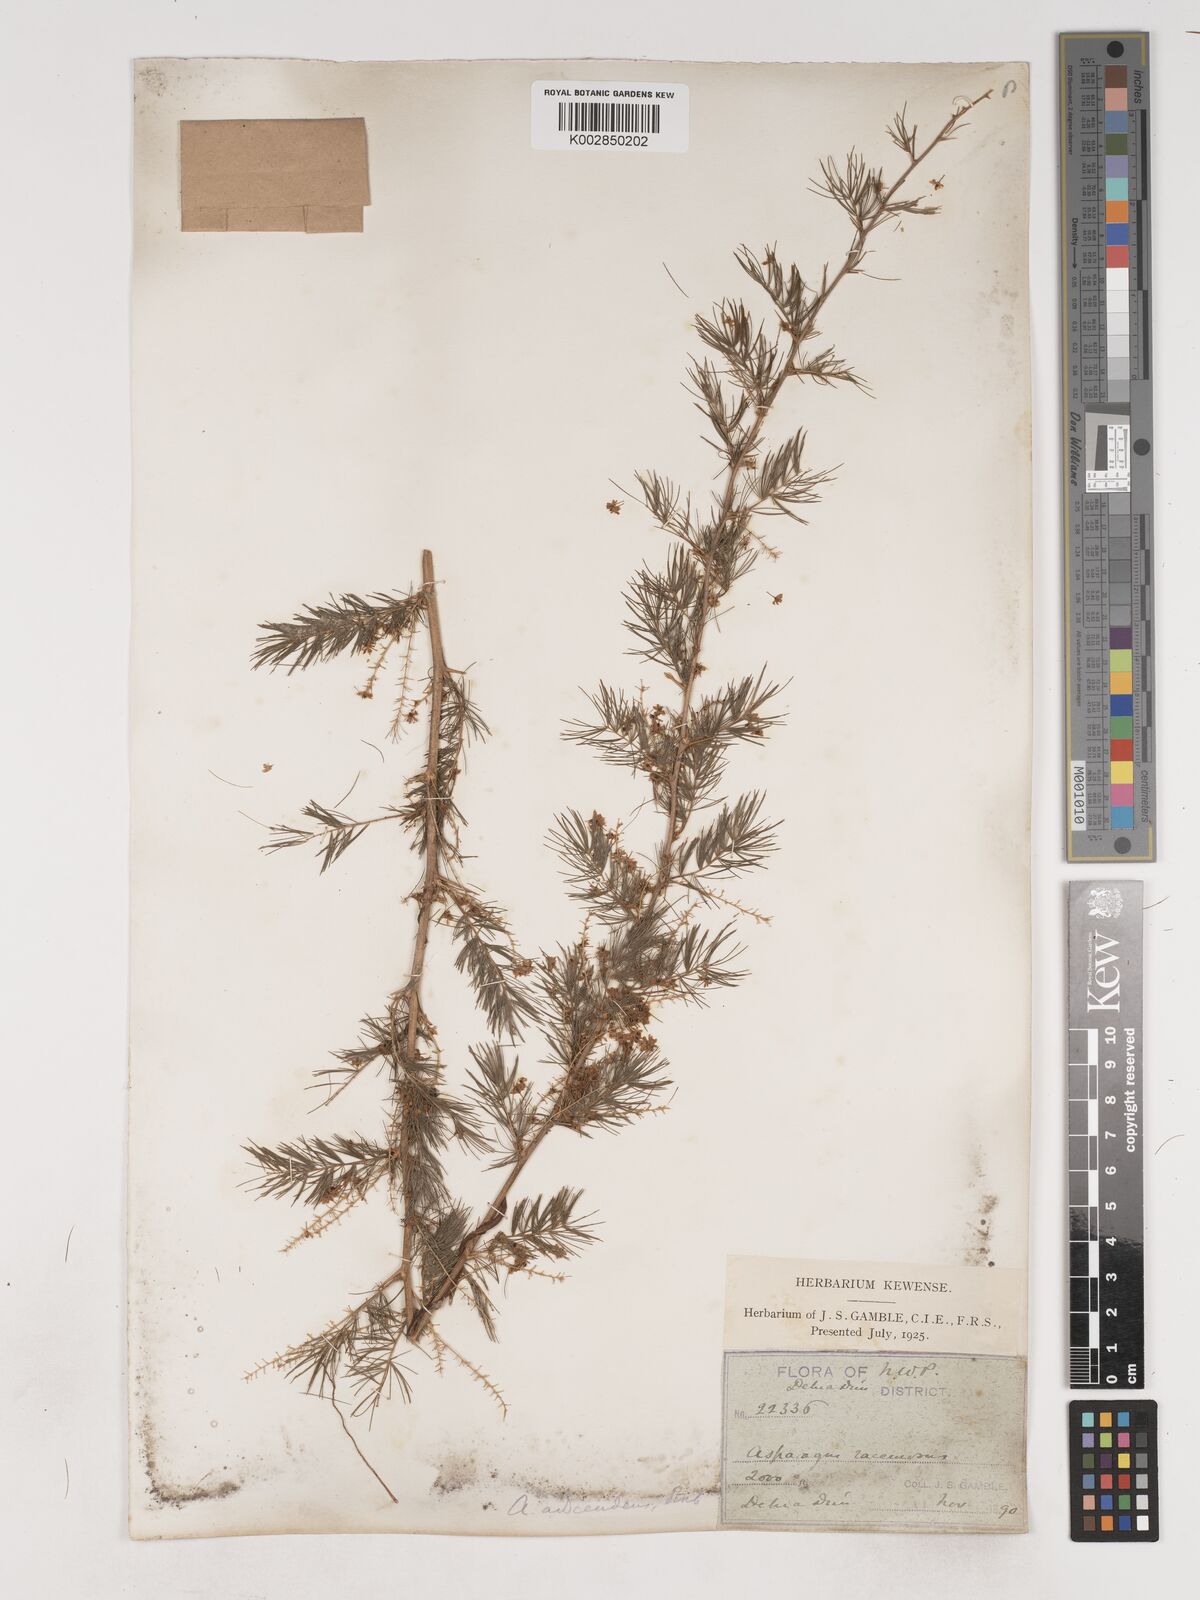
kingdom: Plantae
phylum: Tracheophyta
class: Liliopsida
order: Asparagales
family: Asparagaceae
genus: Asparagus
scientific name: Asparagus adscendens
